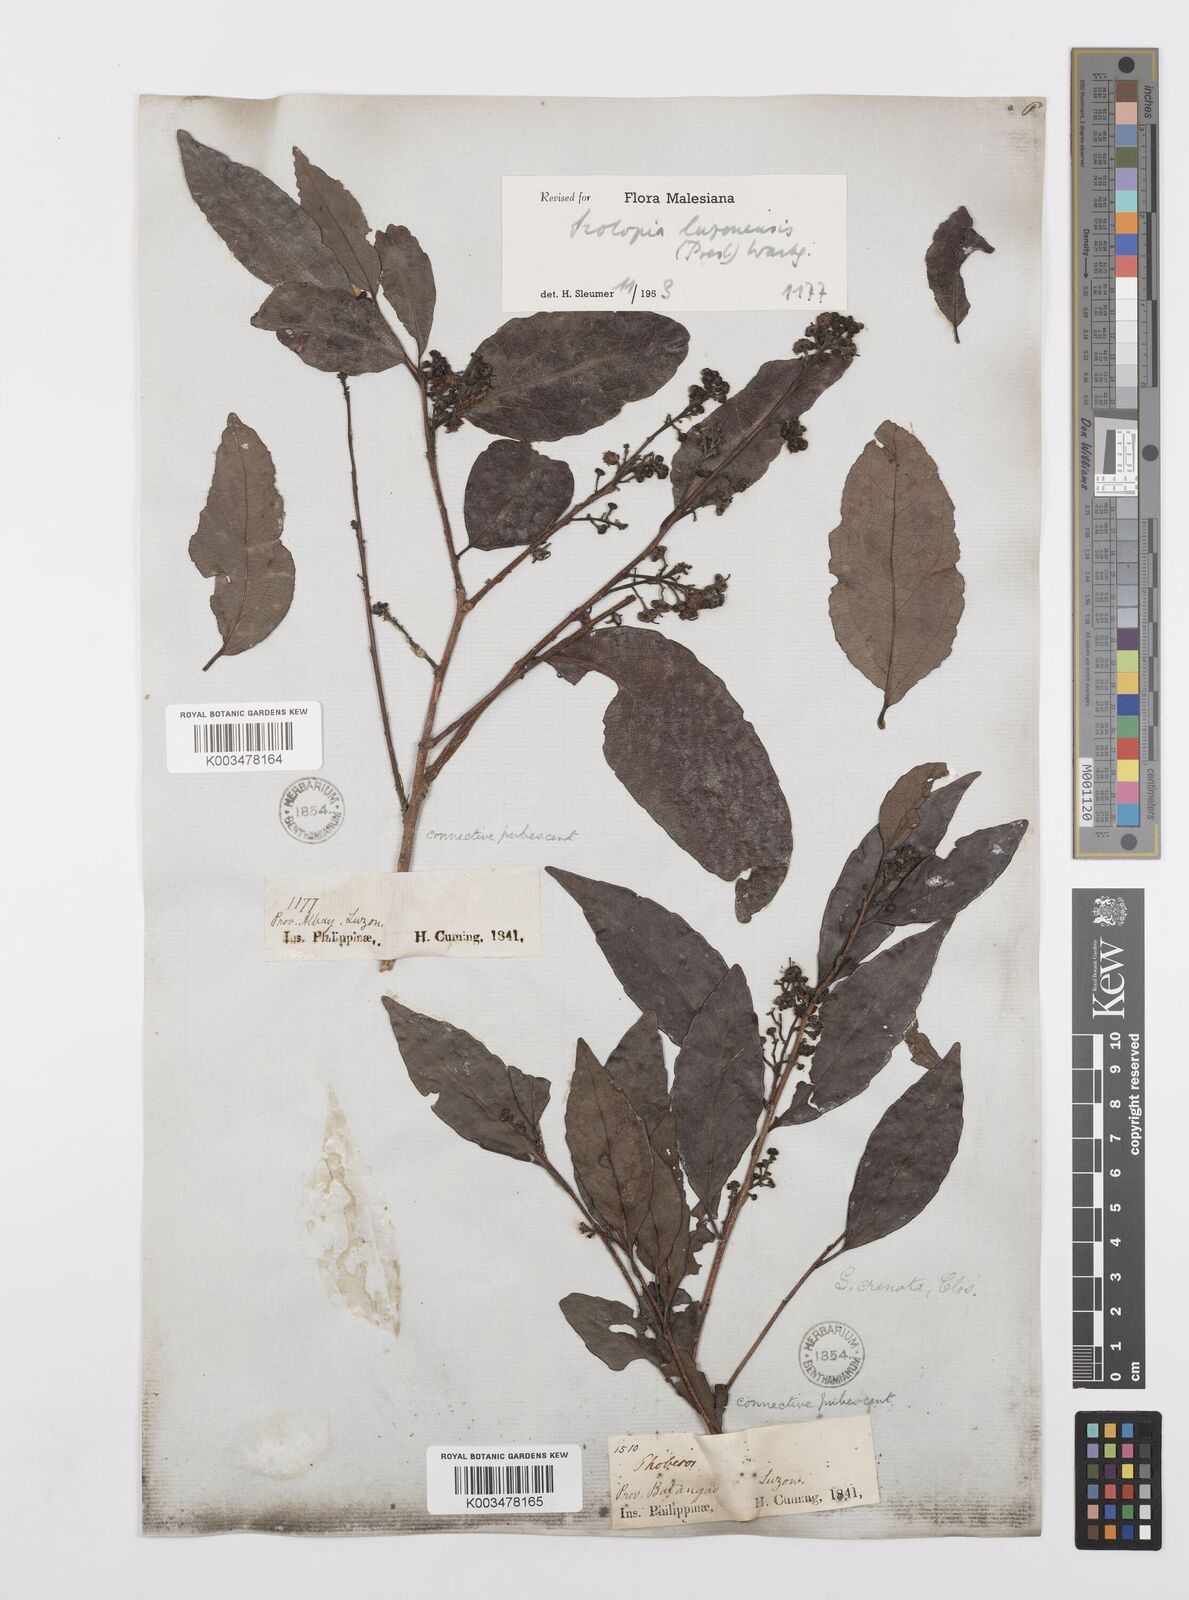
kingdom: Plantae
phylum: Tracheophyta
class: Magnoliopsida
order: Malpighiales
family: Salicaceae
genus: Scolopia
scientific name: Scolopia luzonensis
